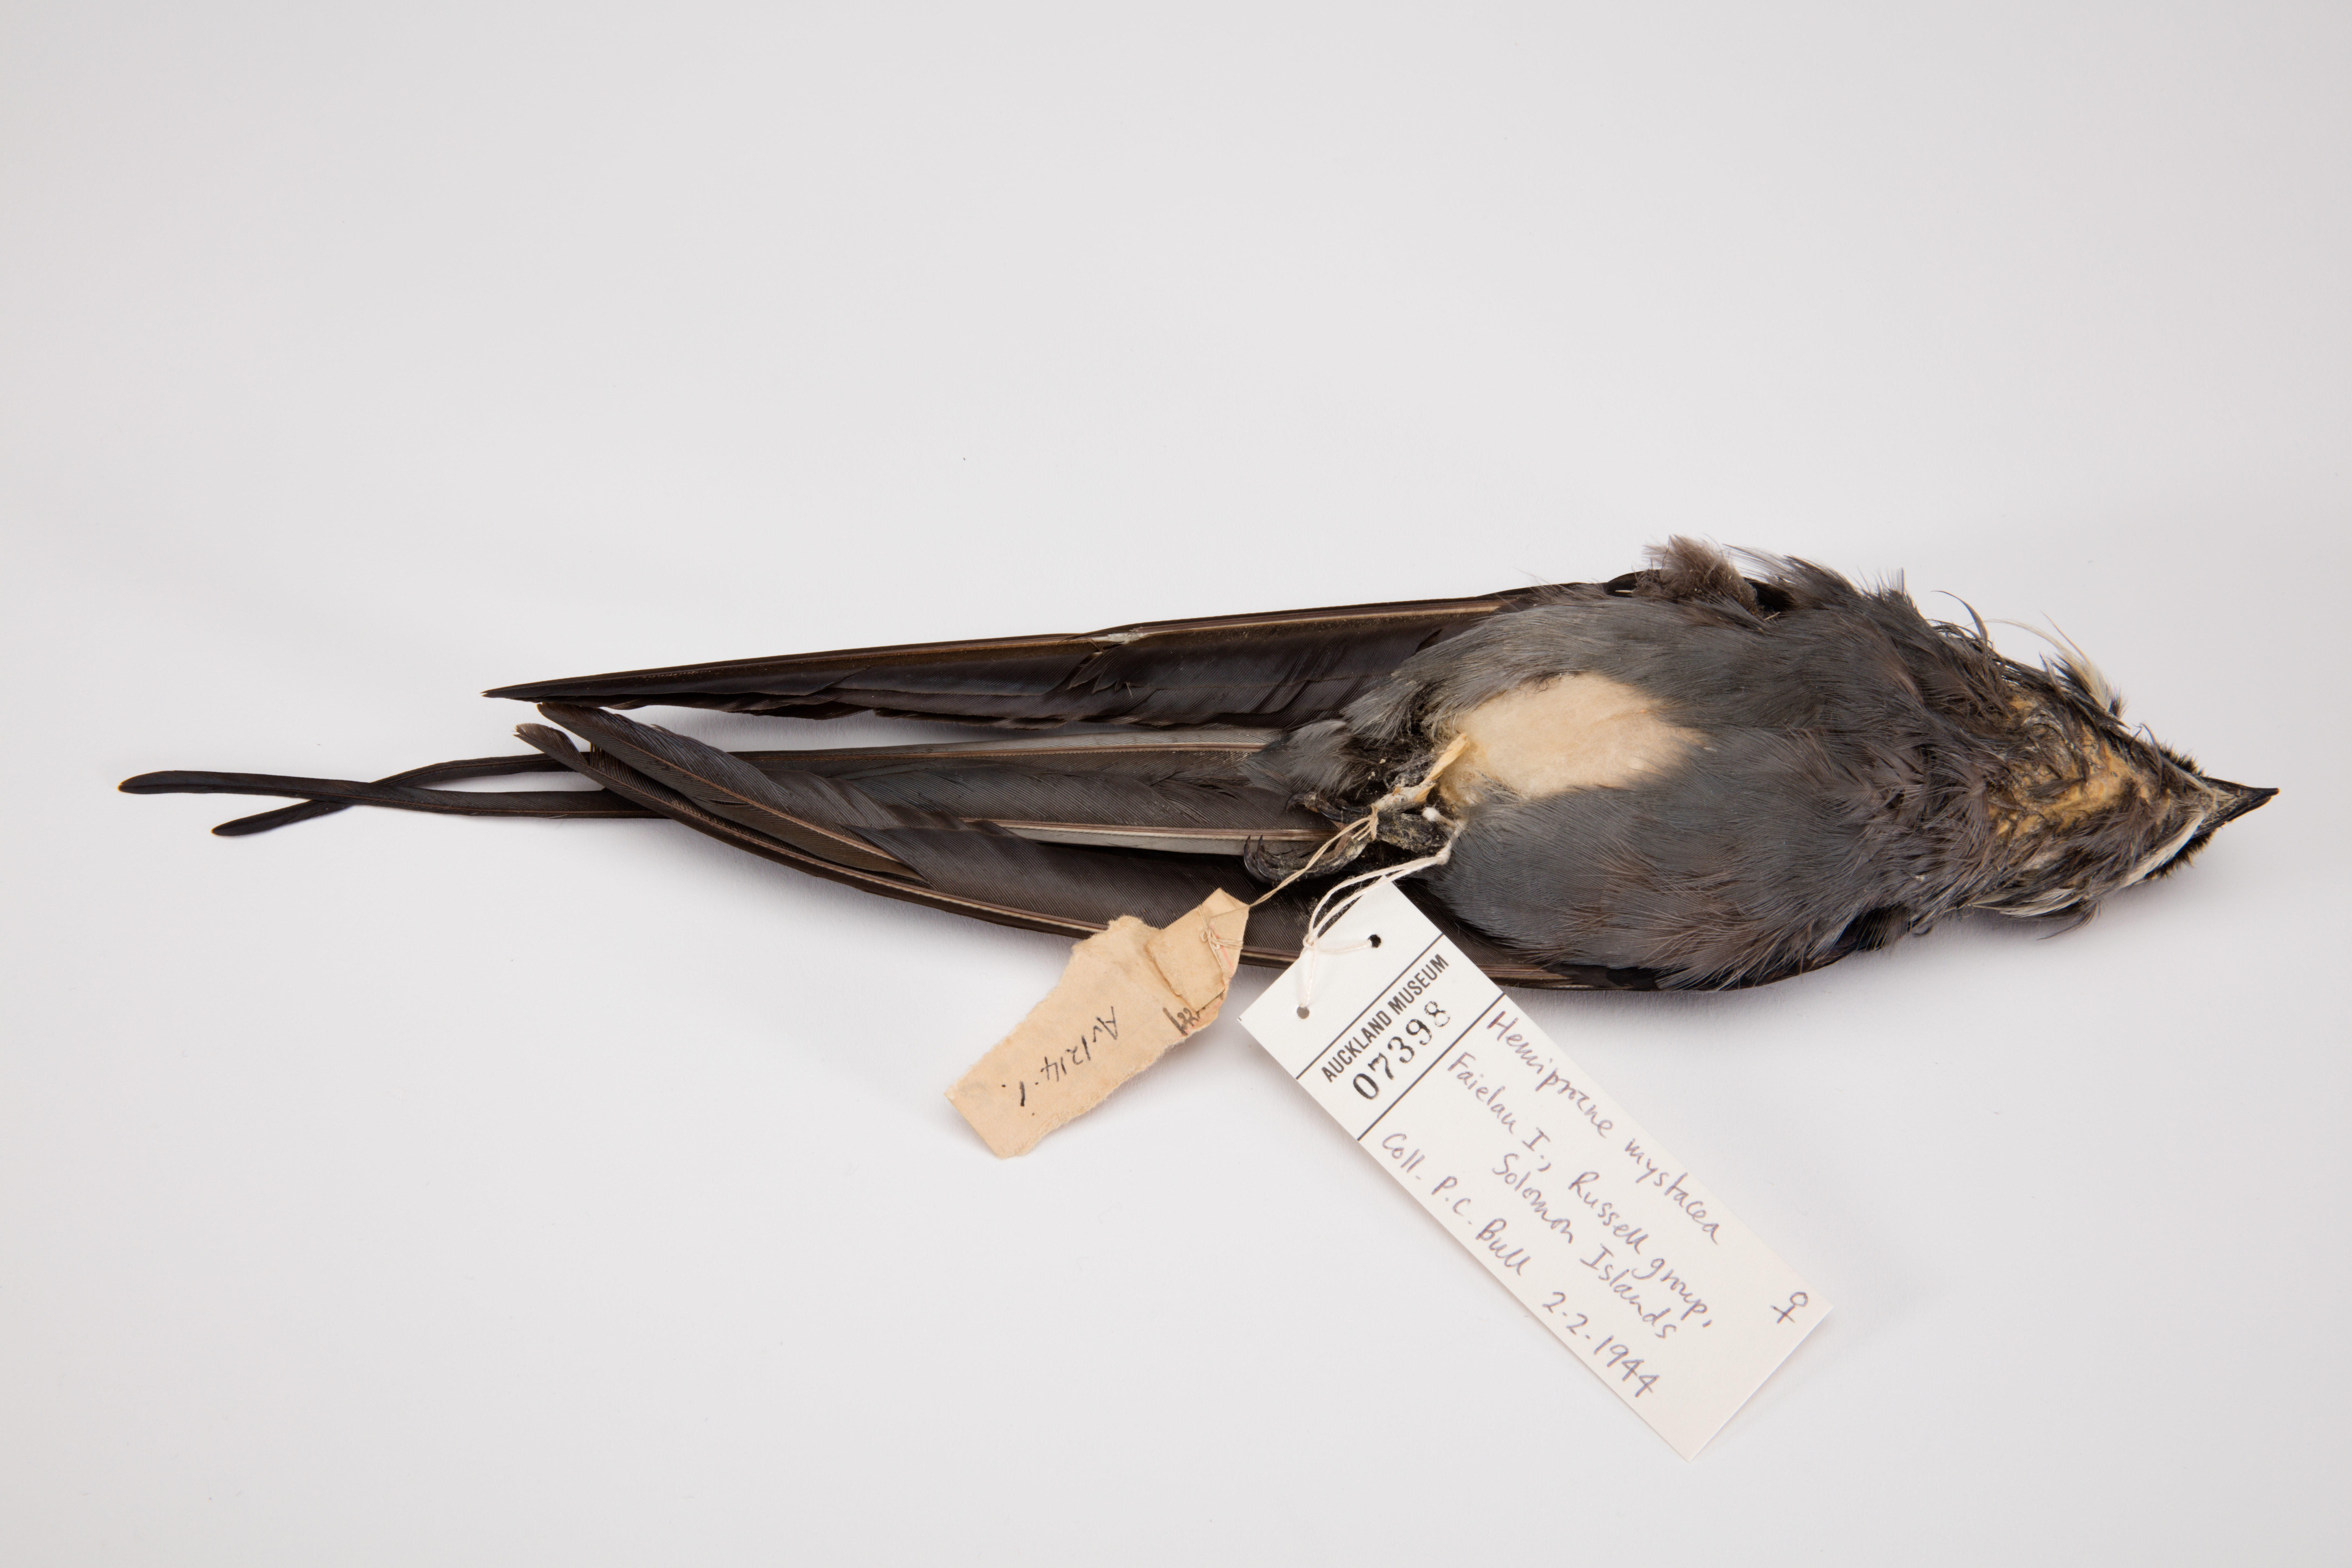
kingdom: Animalia
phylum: Chordata
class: Aves
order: Apodiformes
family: Hemiprocnidae
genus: Hemiprocne
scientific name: Hemiprocne mystacea
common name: Moustached treeswift
